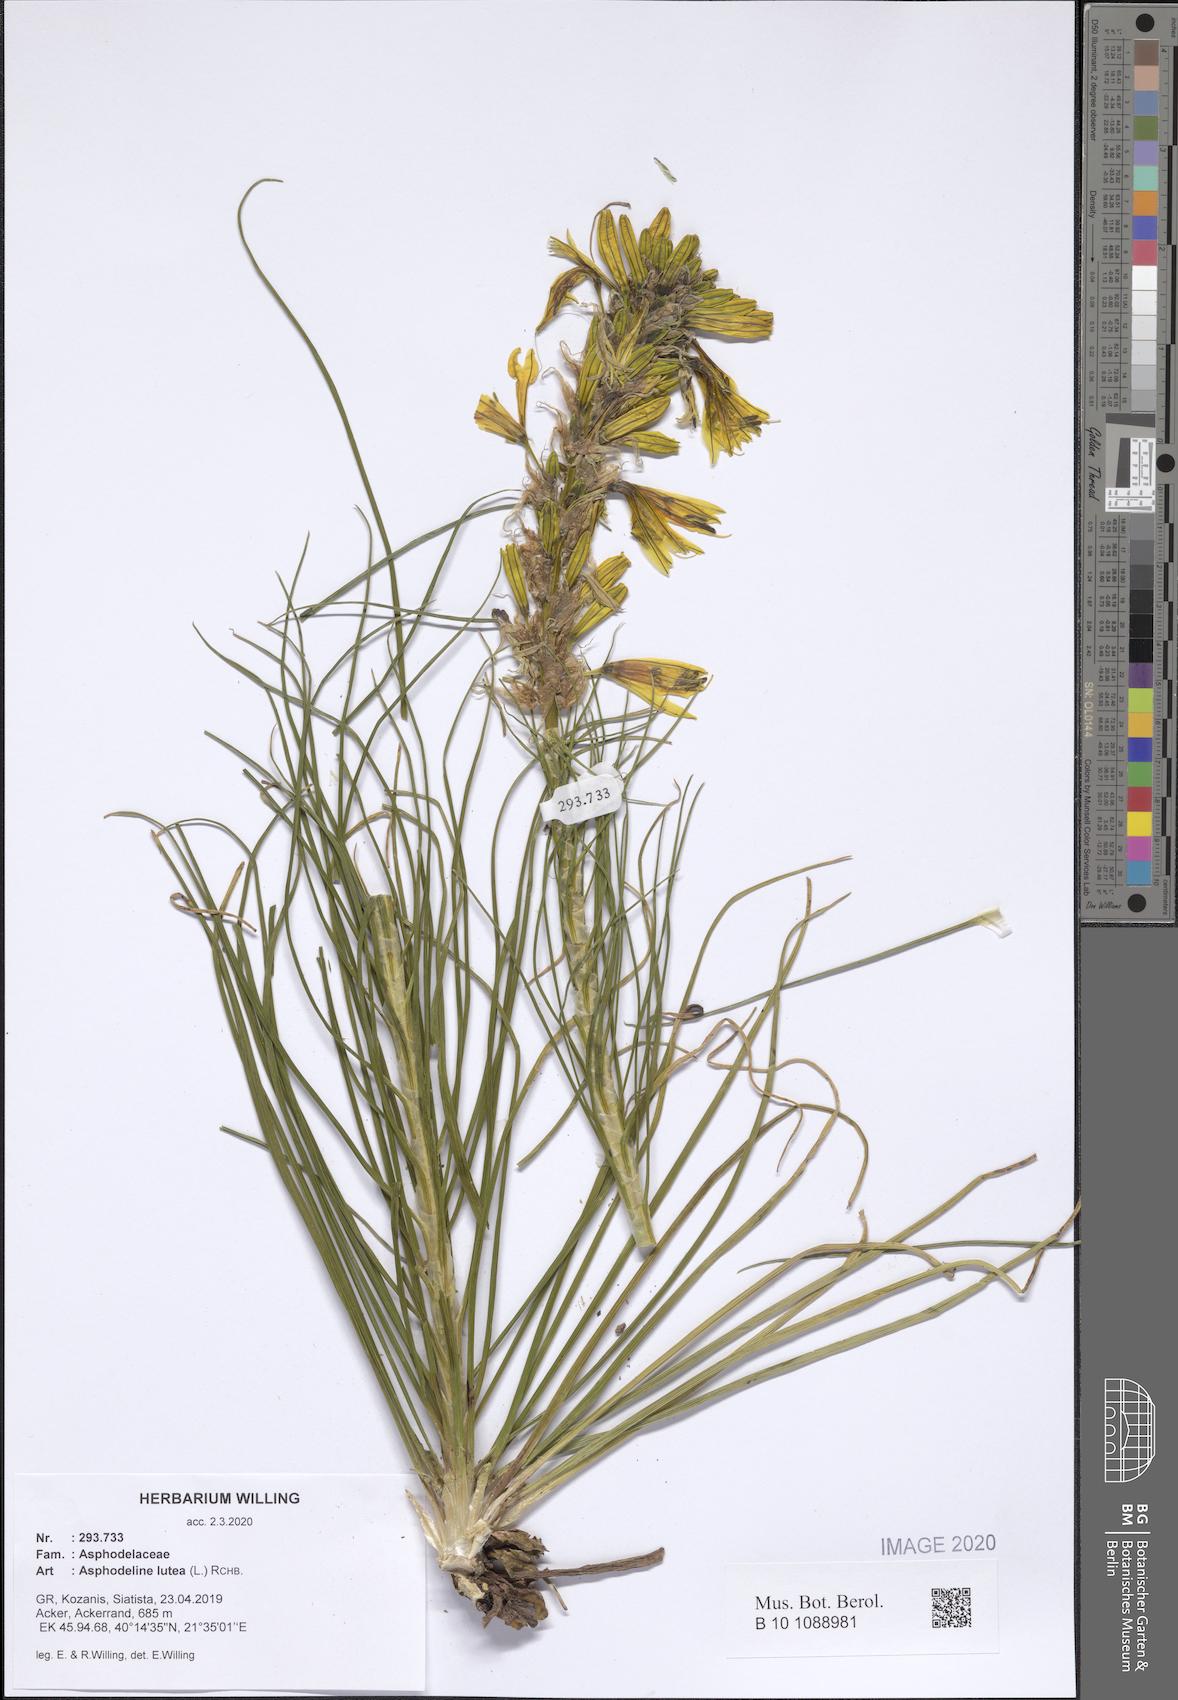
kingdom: Plantae
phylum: Tracheophyta
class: Liliopsida
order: Asparagales
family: Asphodelaceae
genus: Asphodeline
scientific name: Asphodeline lutea
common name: Yellow asphodel
